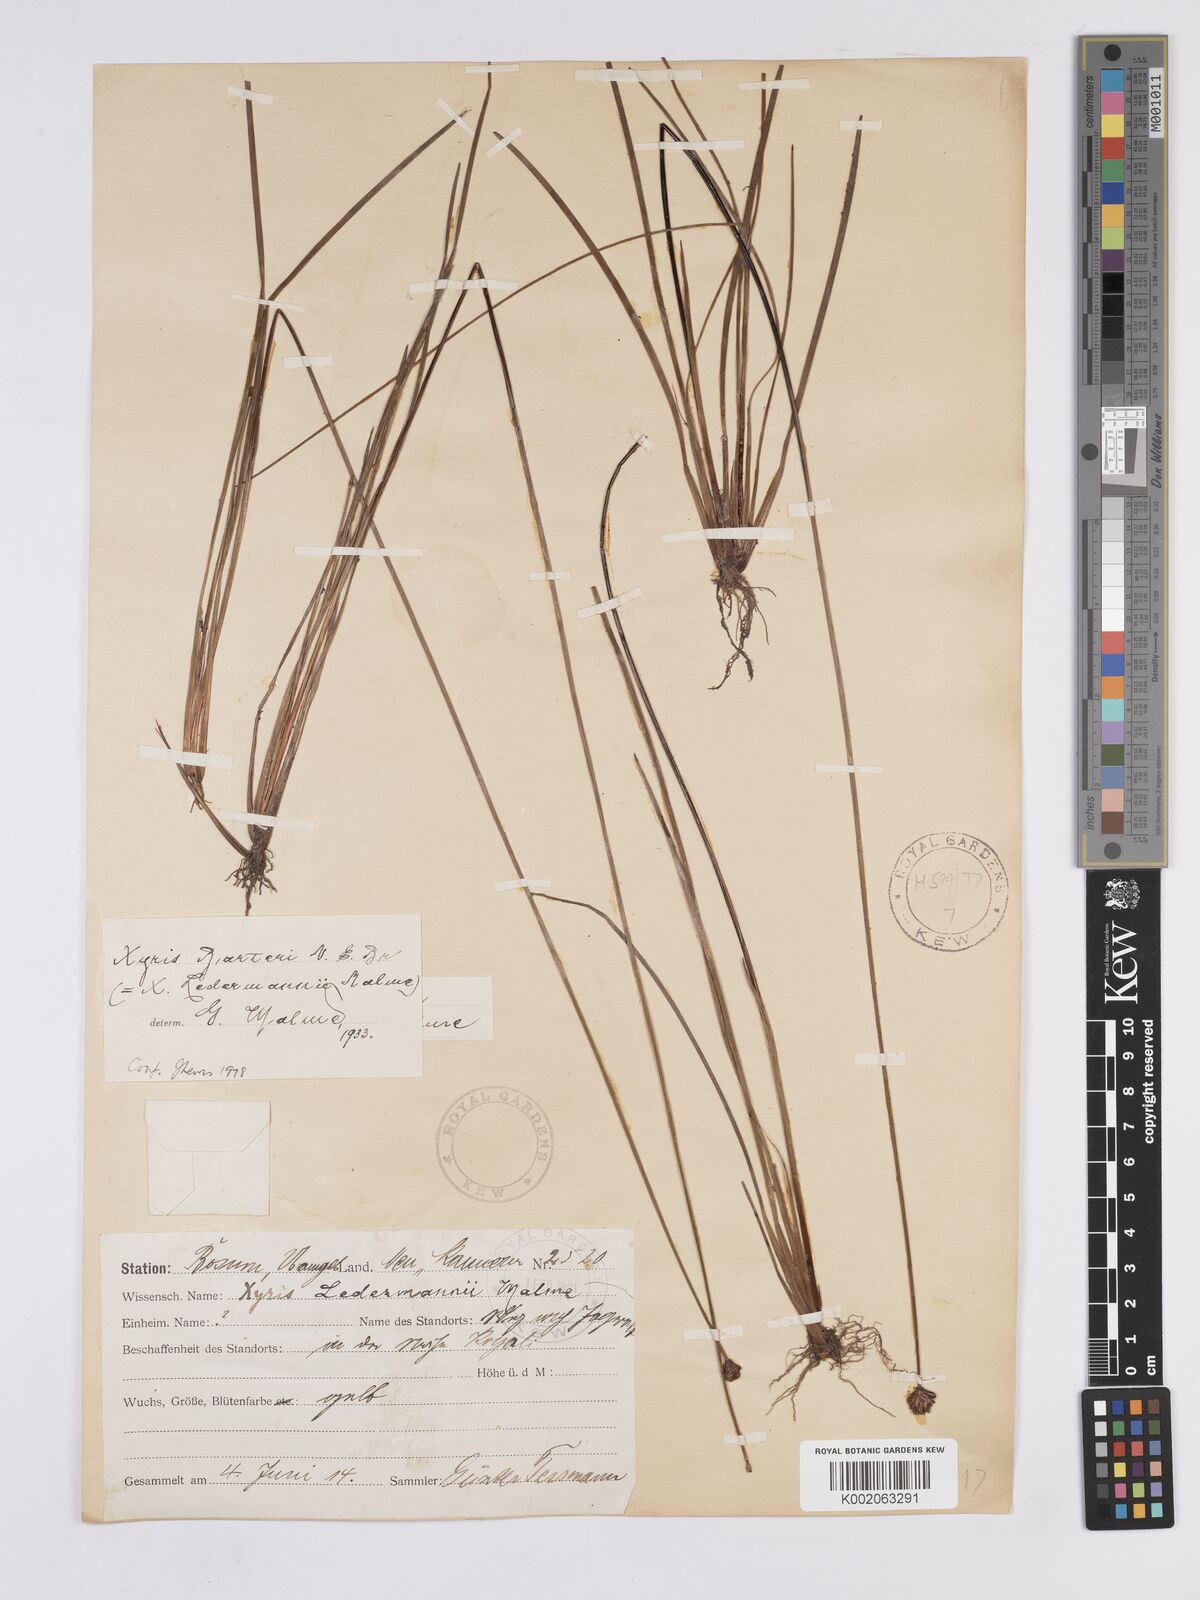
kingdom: Plantae
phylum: Tracheophyta
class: Liliopsida
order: Poales
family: Xyridaceae
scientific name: Xyridaceae
